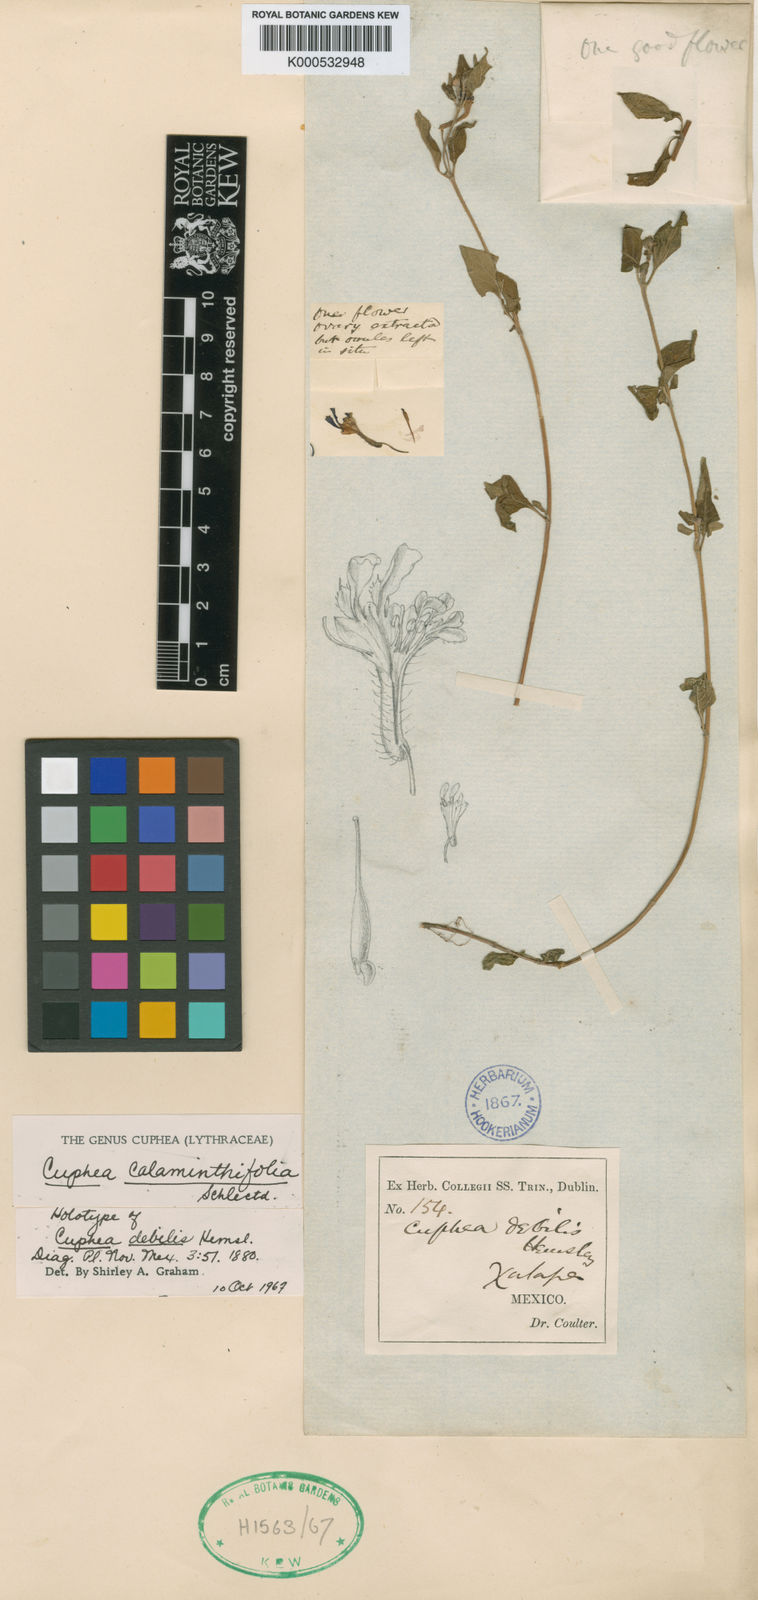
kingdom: Plantae
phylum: Tracheophyta
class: Magnoliopsida
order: Myrtales
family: Lythraceae
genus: Cuphea
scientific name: Cuphea calaminthifolia
